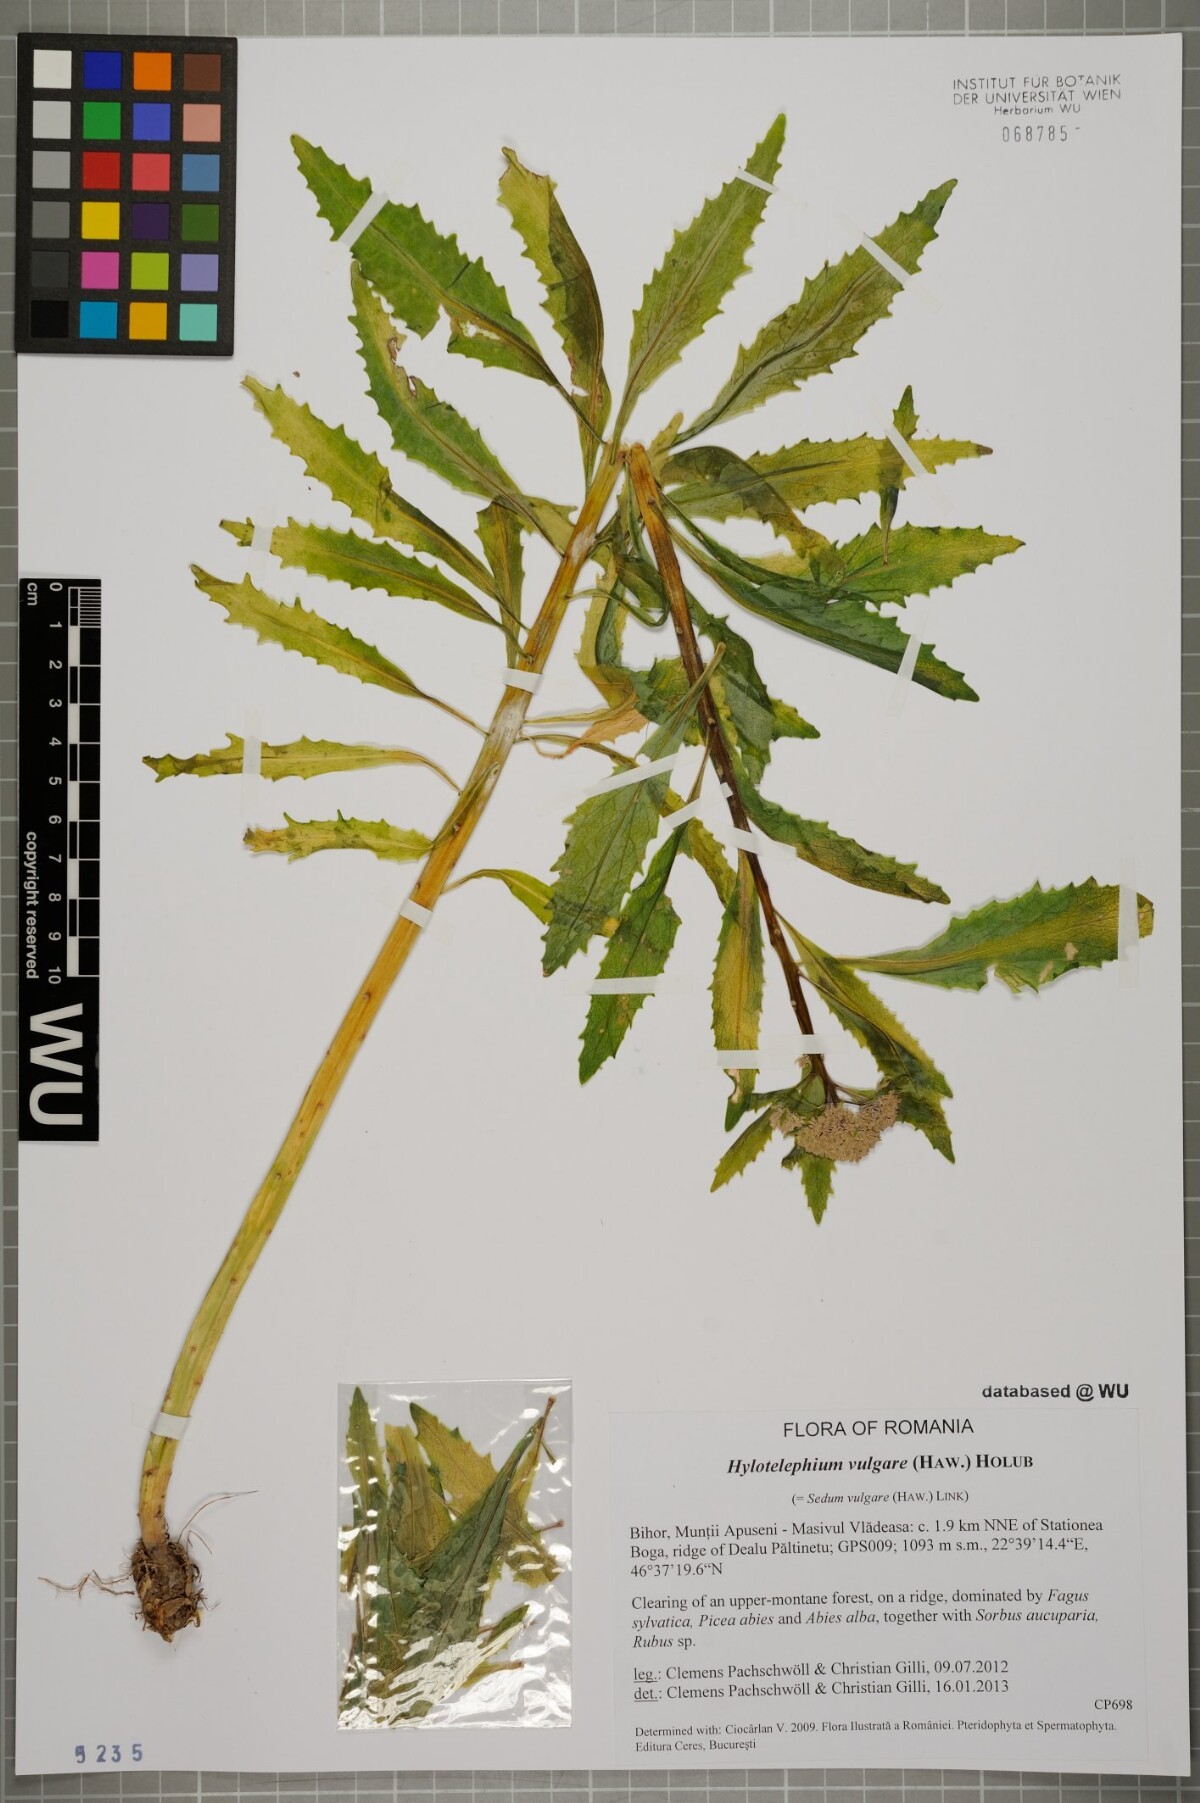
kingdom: Plantae
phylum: Tracheophyta
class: Magnoliopsida
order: Saxifragales
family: Crassulaceae
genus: Hylotelephium
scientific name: Hylotelephium vulgare
